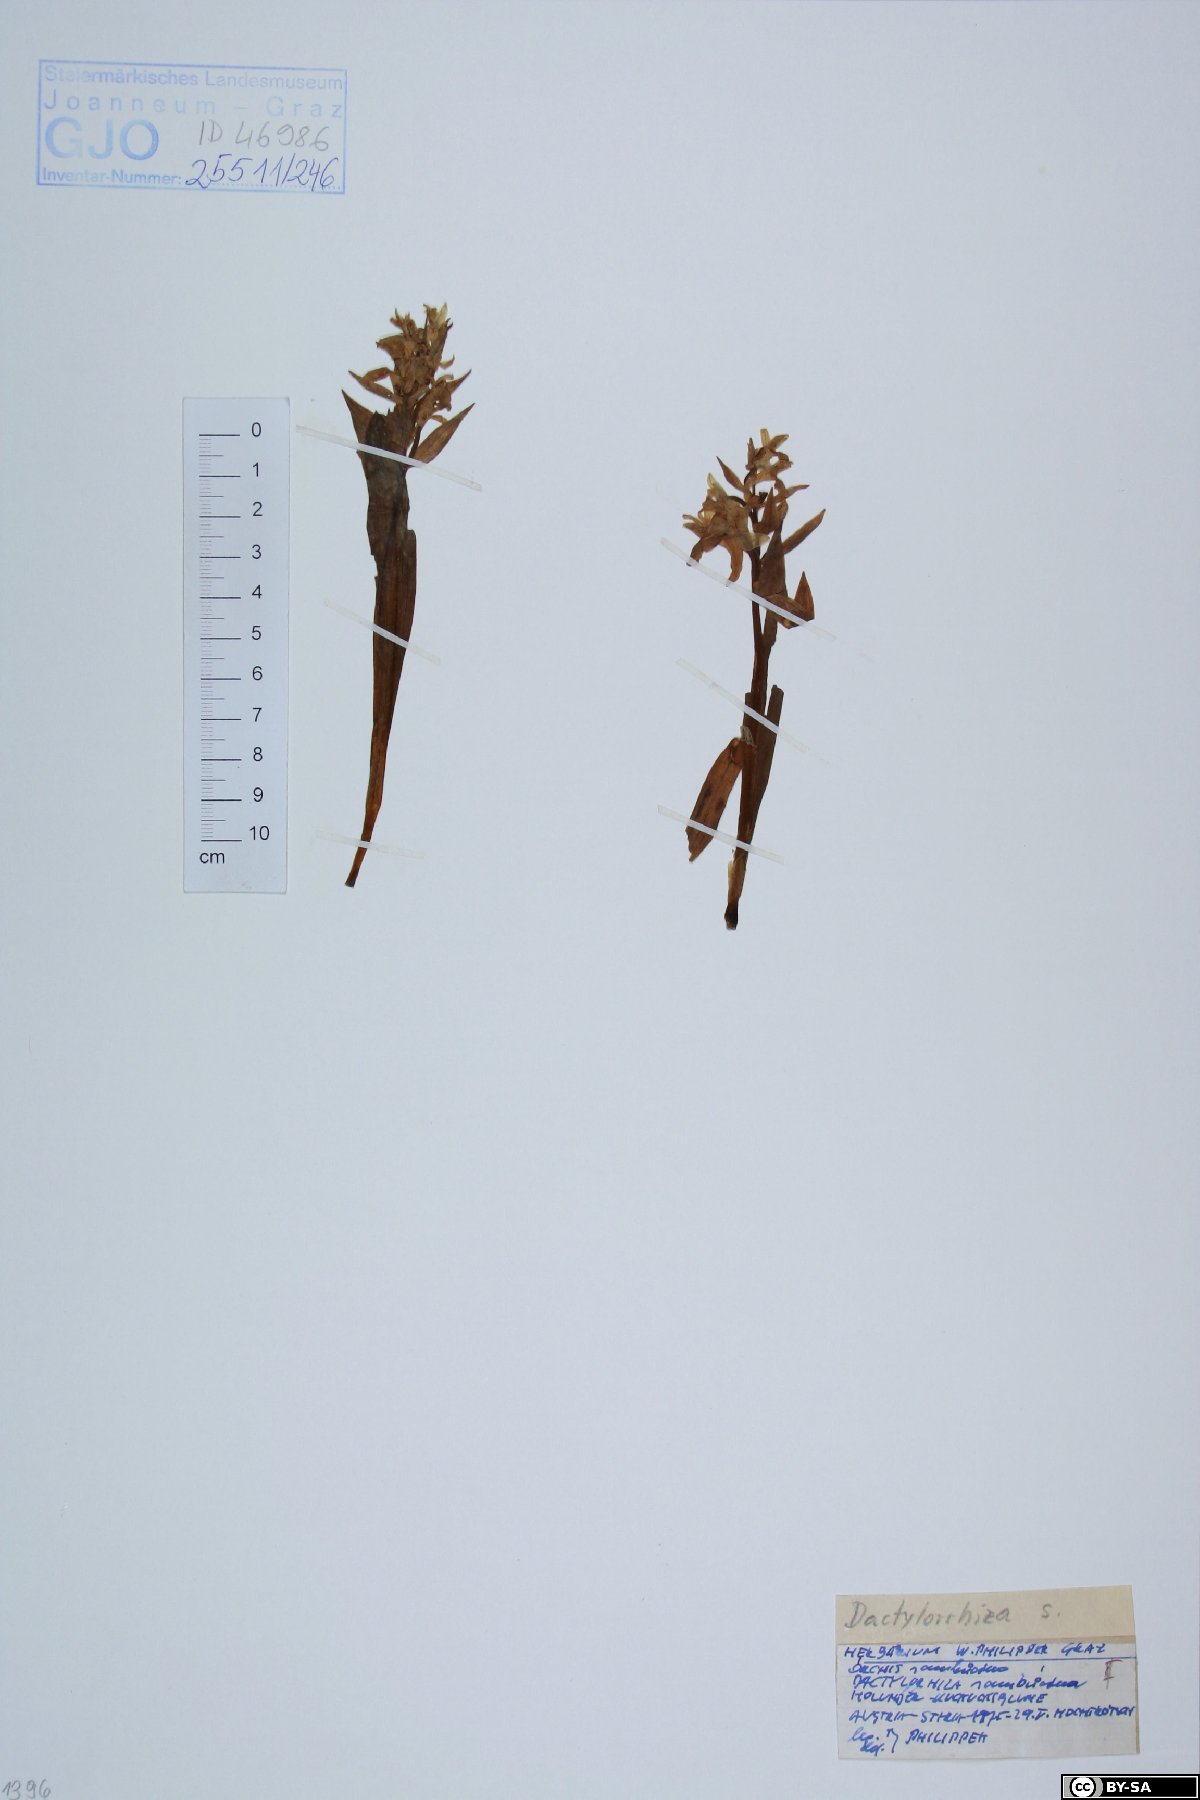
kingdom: Plantae
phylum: Tracheophyta
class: Liliopsida
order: Asparagales
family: Orchidaceae
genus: Dactylorhiza
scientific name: Dactylorhiza sambucina
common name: Elder-flowered orchid
